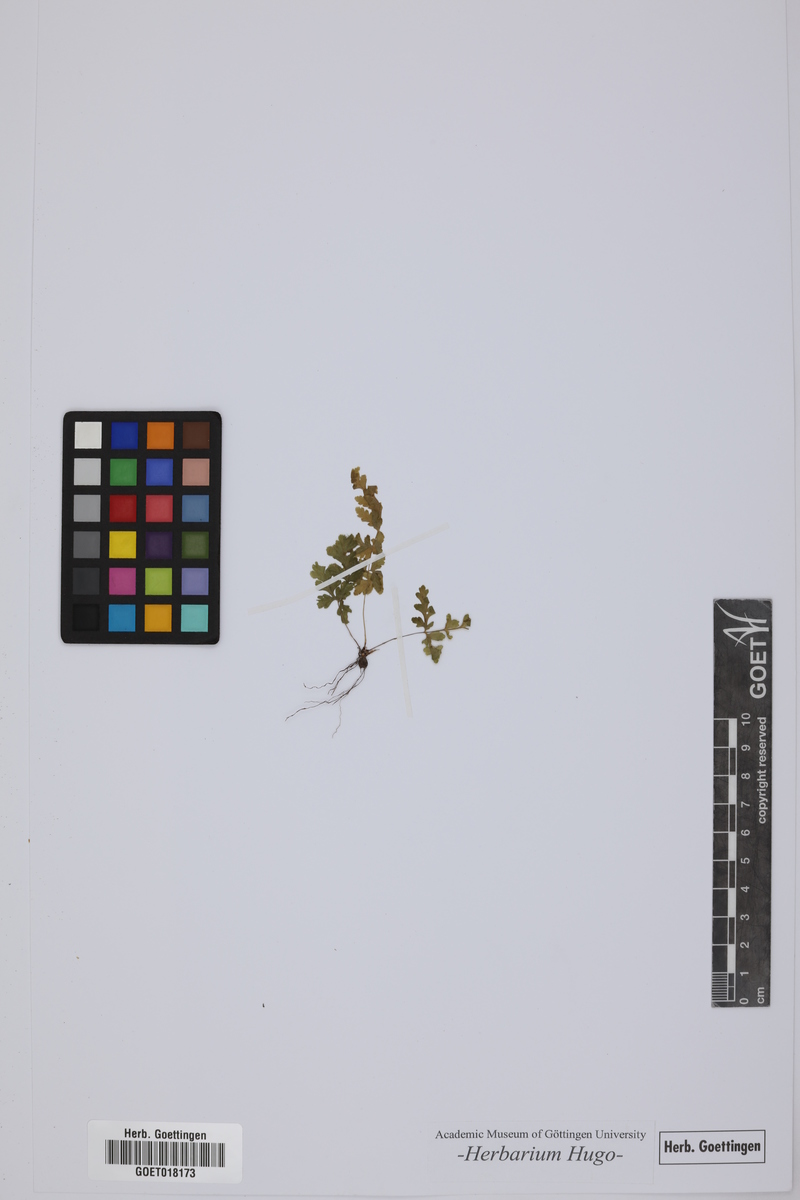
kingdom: Plantae
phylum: Tracheophyta
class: Polypodiopsida
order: Polypodiales
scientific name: Polypodiales
